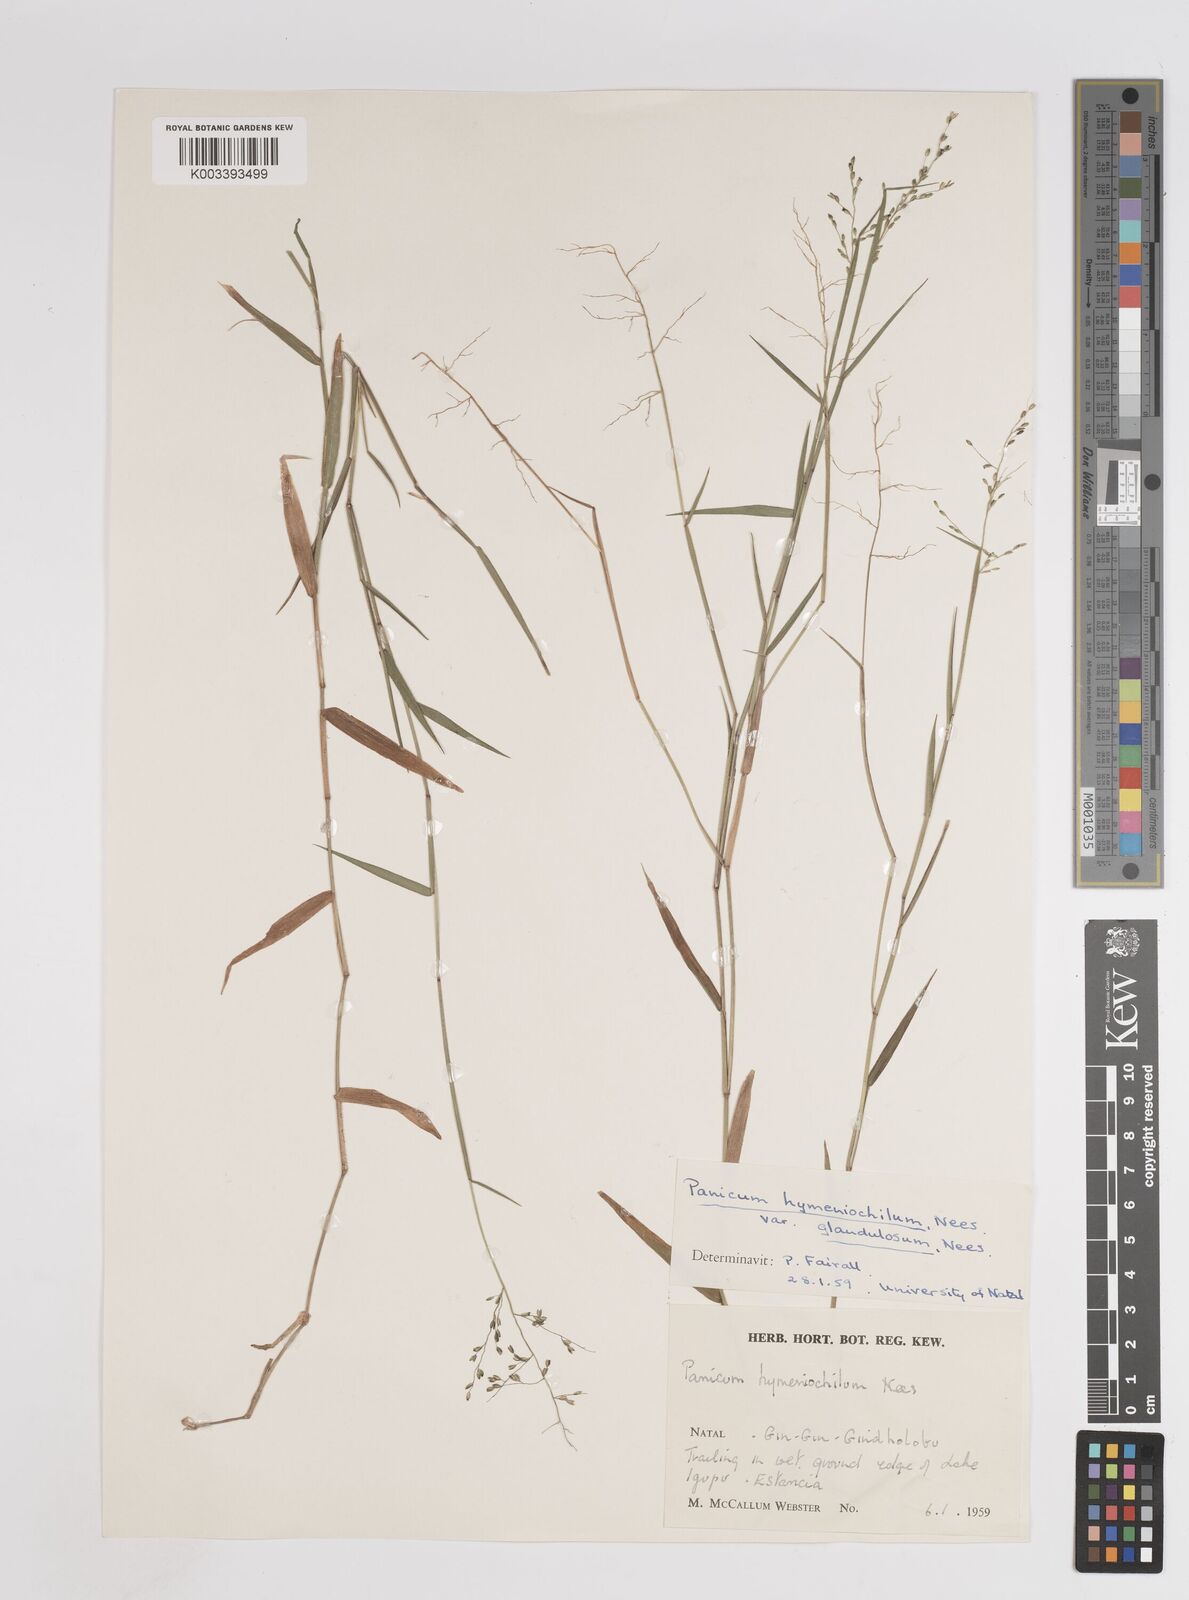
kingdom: Plantae
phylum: Tracheophyta
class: Liliopsida
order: Poales
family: Poaceae
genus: Adenochloa
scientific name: Adenochloa hymeniochila
